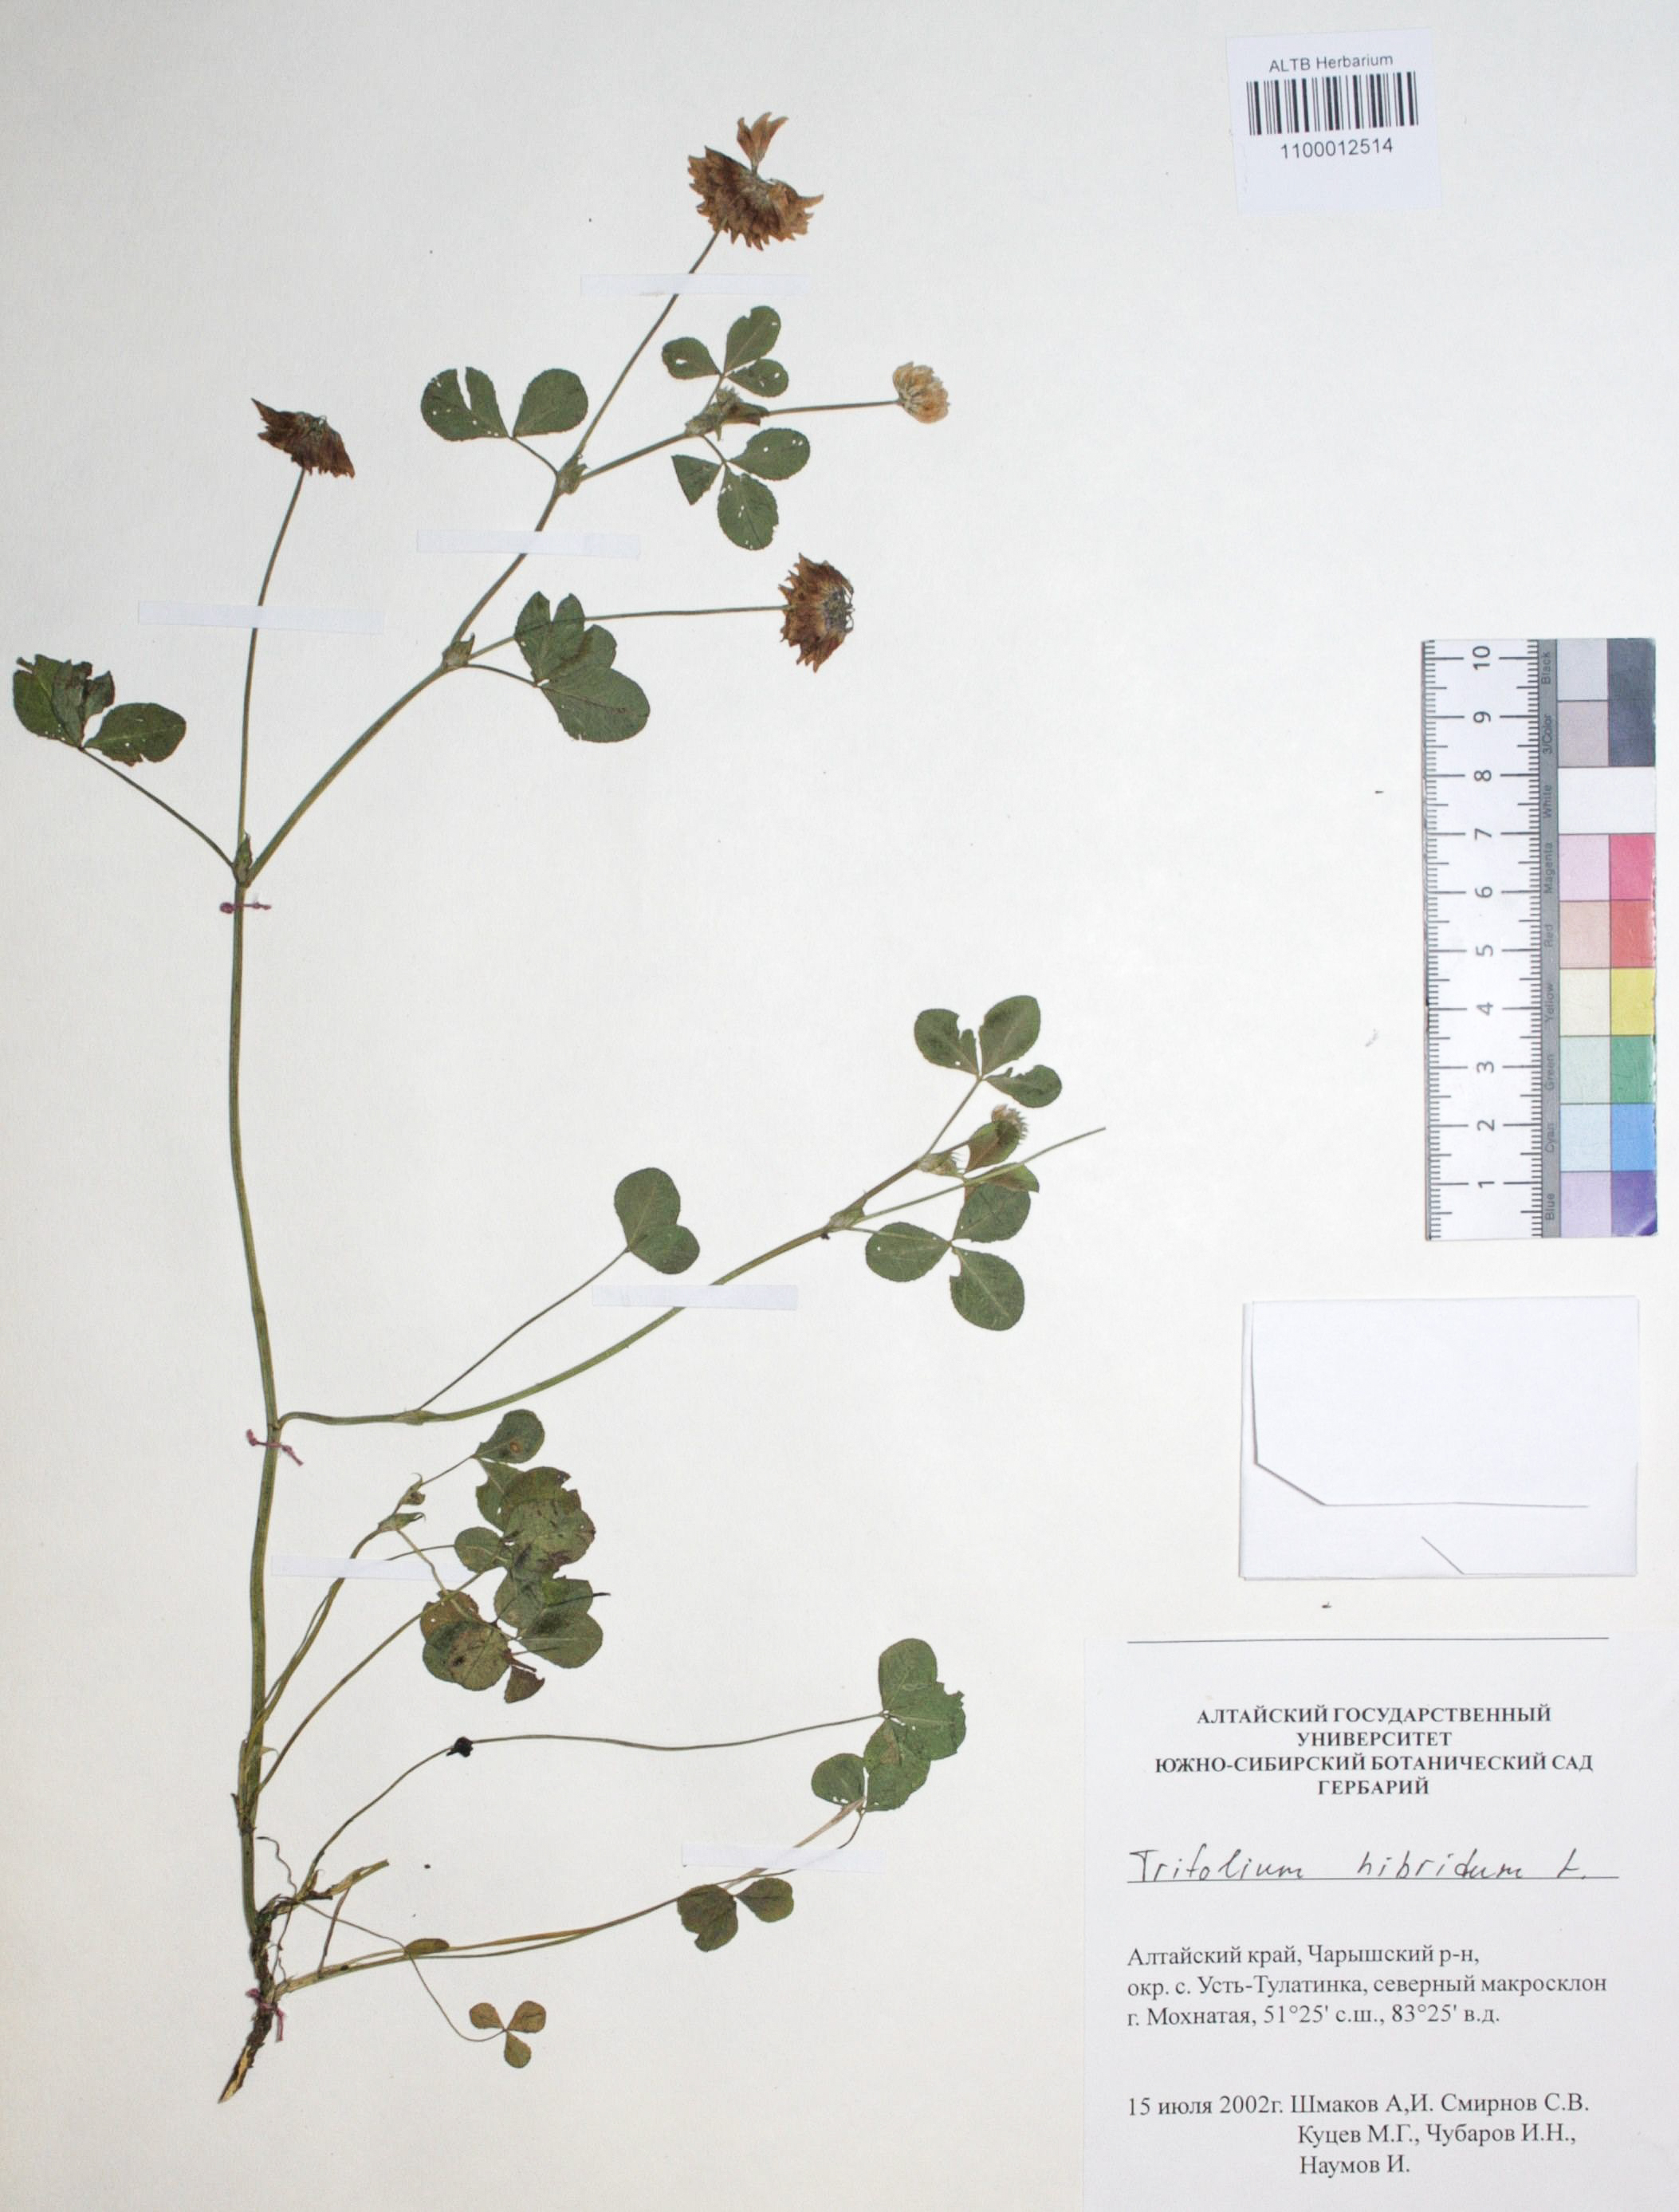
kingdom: Plantae
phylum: Tracheophyta
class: Magnoliopsida
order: Fabales
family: Fabaceae
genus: Trifolium
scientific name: Trifolium hybridum
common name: Alsike clover
